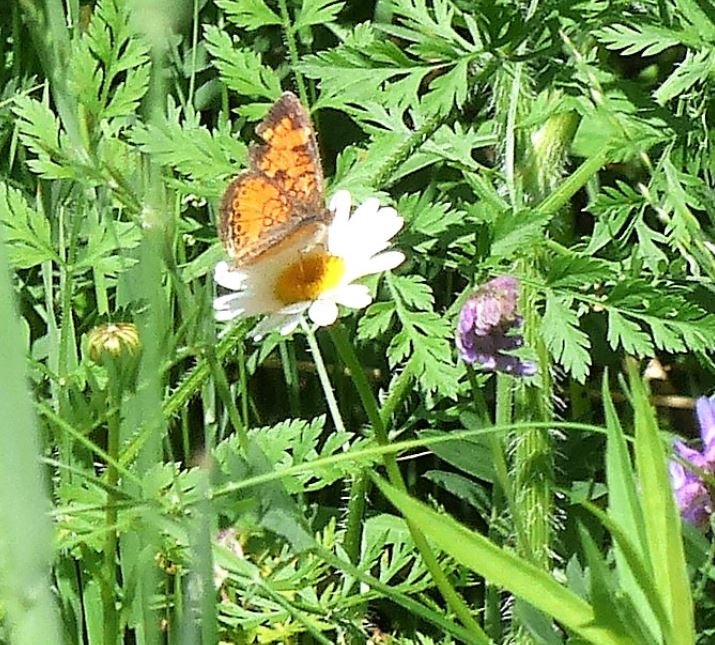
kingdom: Animalia
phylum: Arthropoda
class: Insecta
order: Lepidoptera
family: Nymphalidae
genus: Phyciodes
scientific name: Phyciodes tharos
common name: Northern Crescent
